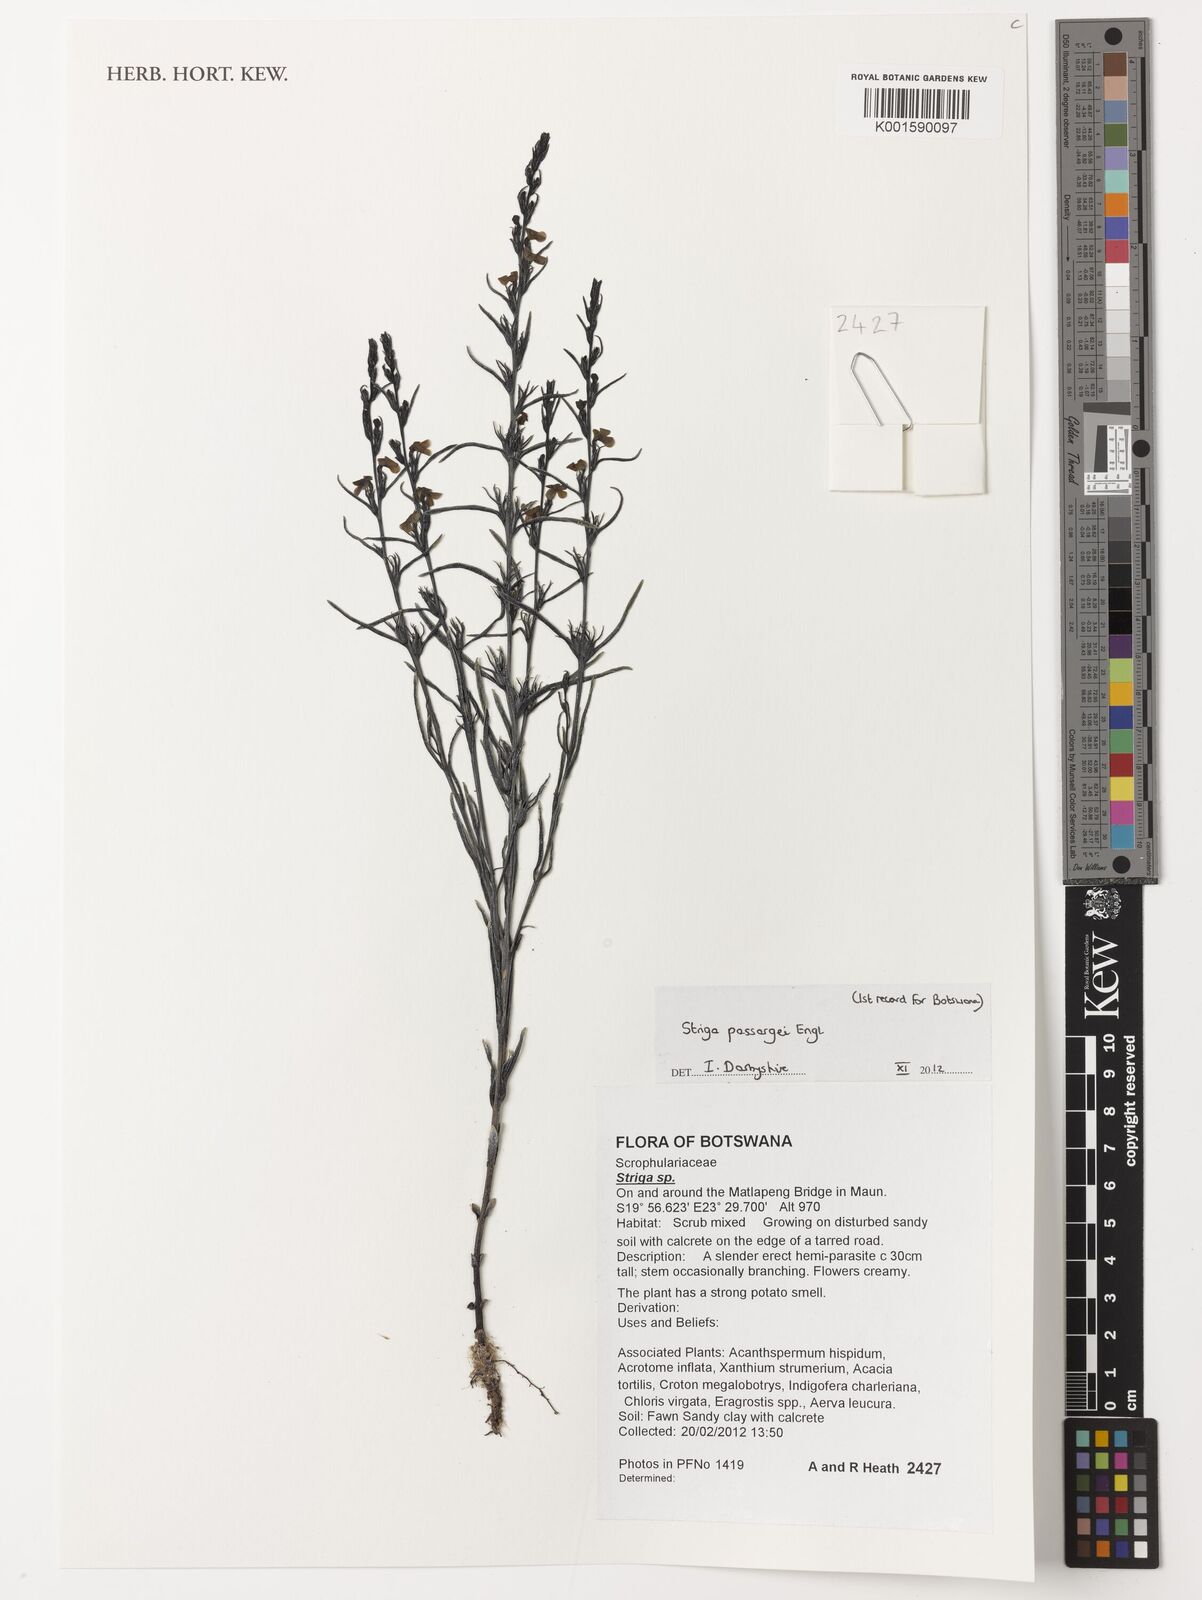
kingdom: Plantae
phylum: Tracheophyta
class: Magnoliopsida
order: Lamiales
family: Orobanchaceae
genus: Striga
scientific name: Striga passargei
